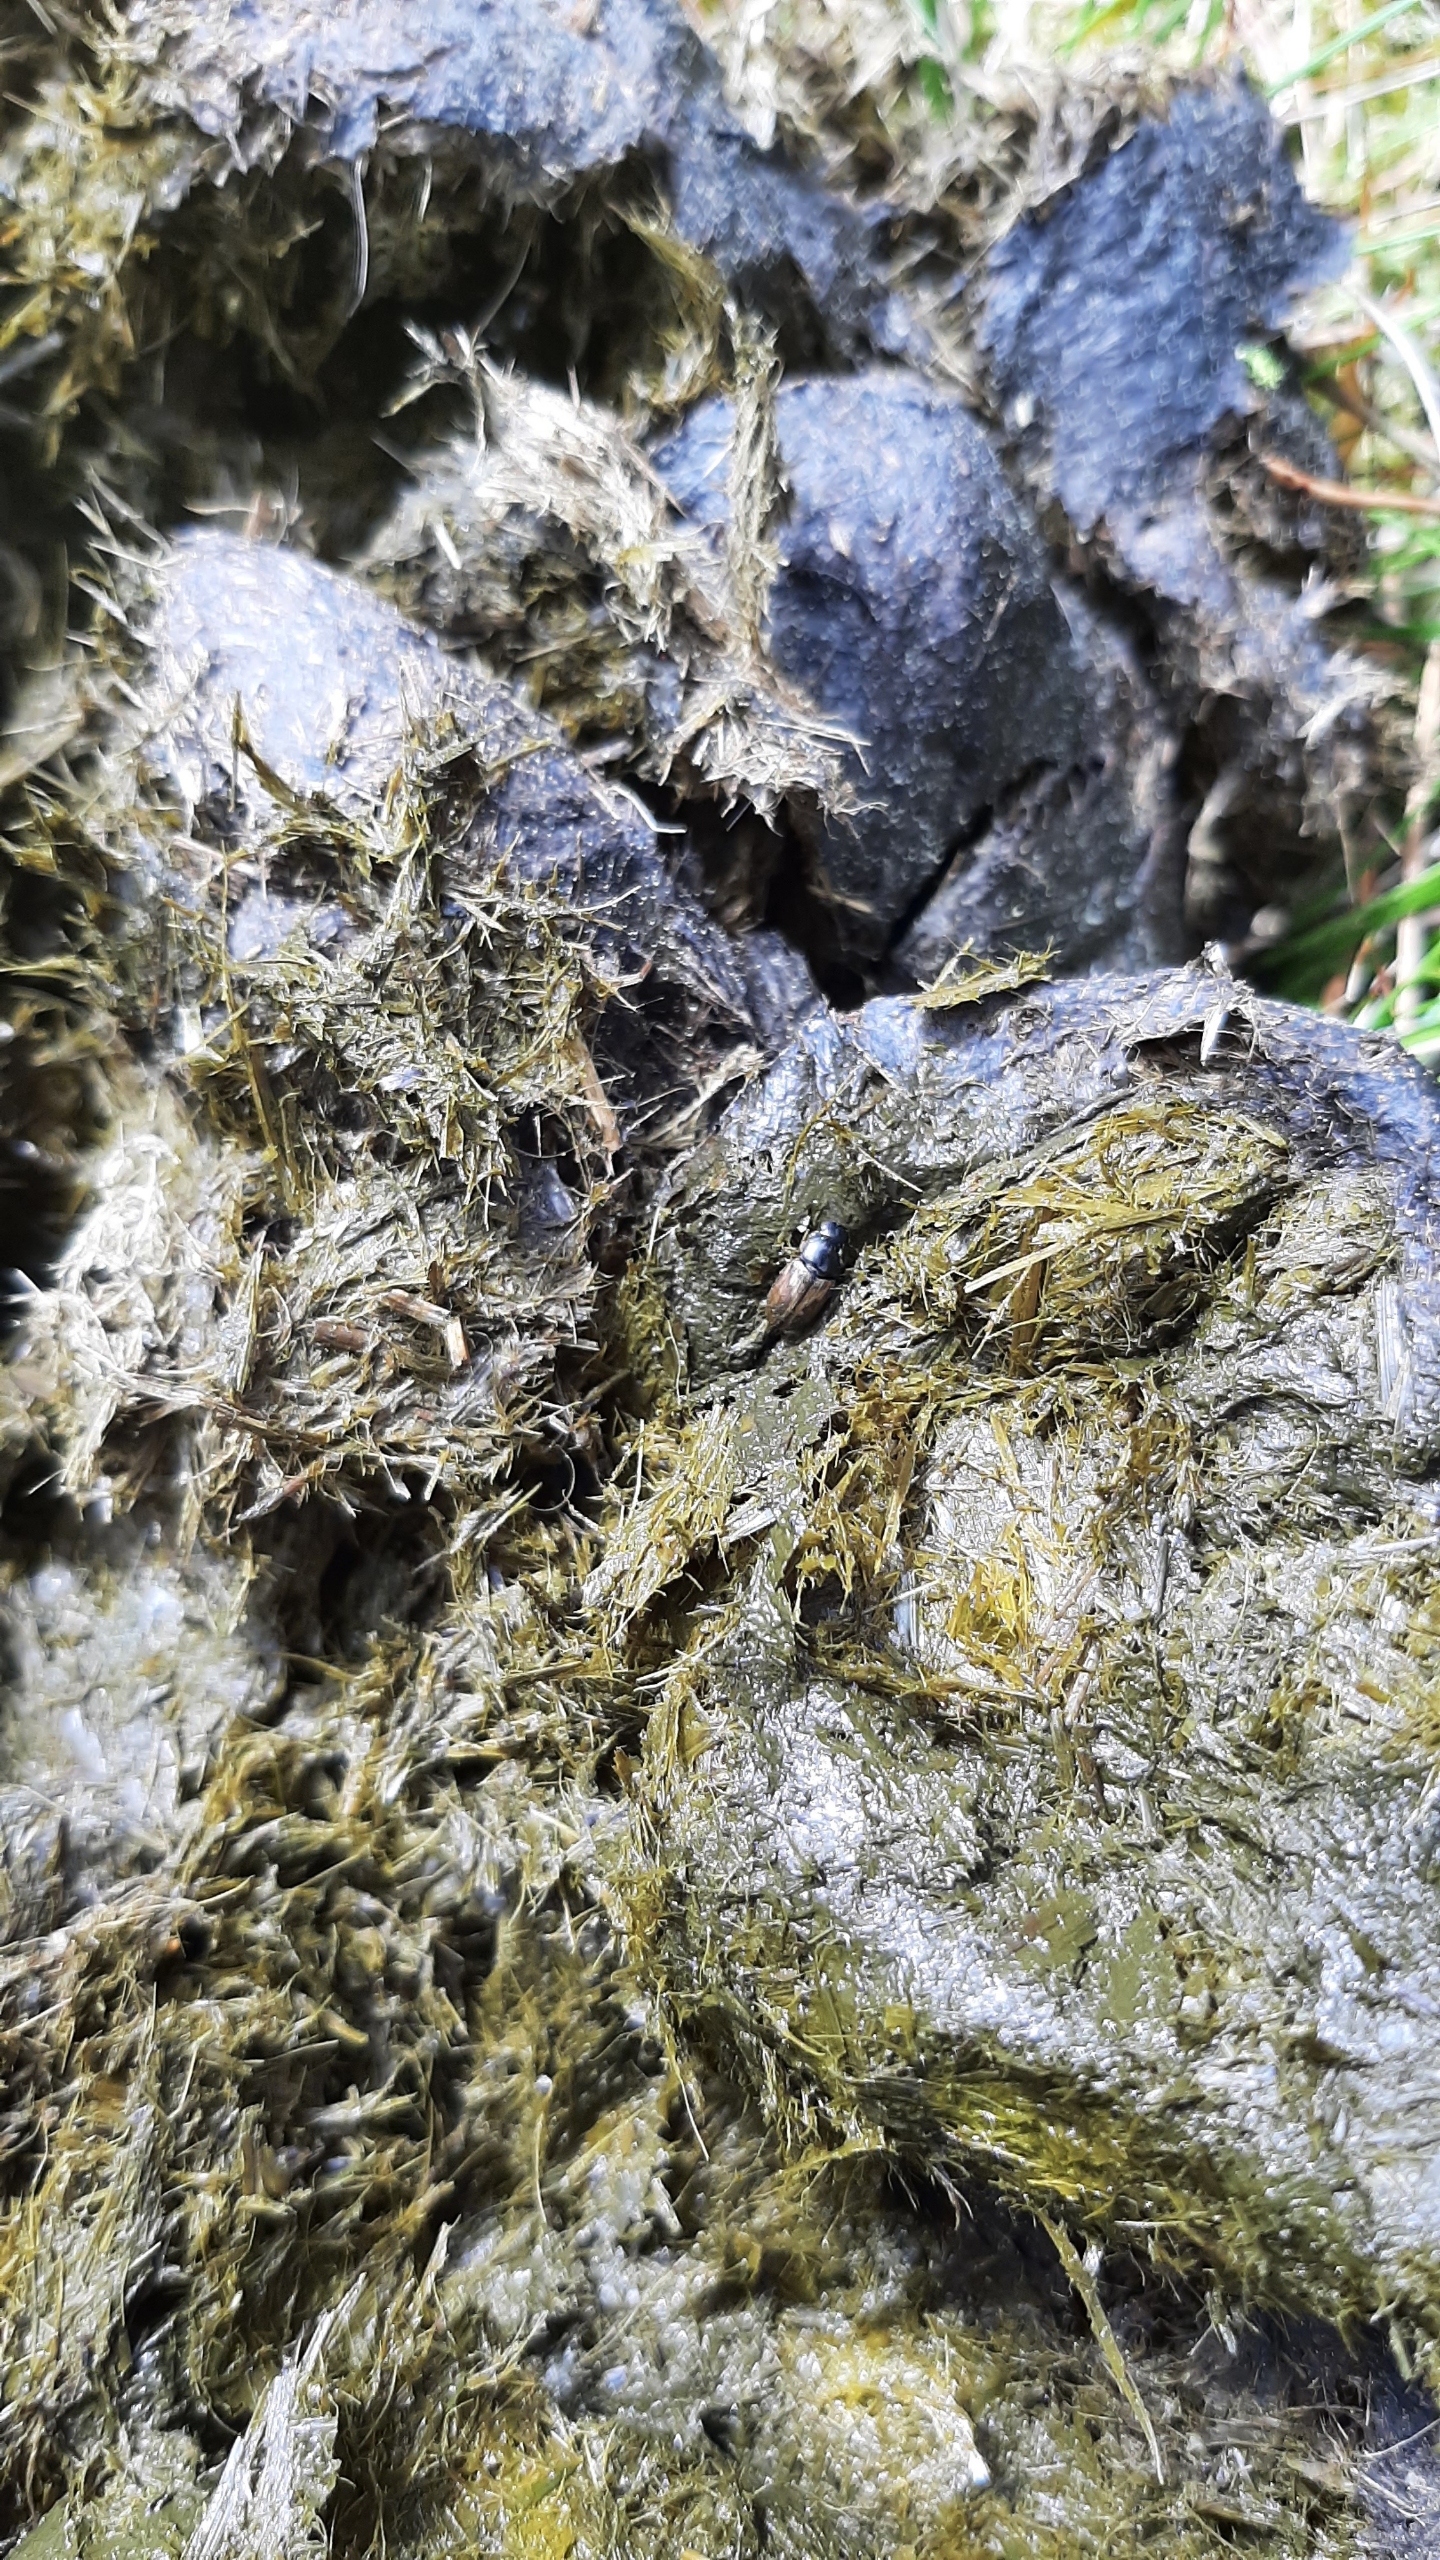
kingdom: Animalia
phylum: Arthropoda
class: Insecta
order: Coleoptera
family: Scarabaeidae
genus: Aphodius
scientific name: Aphodius
